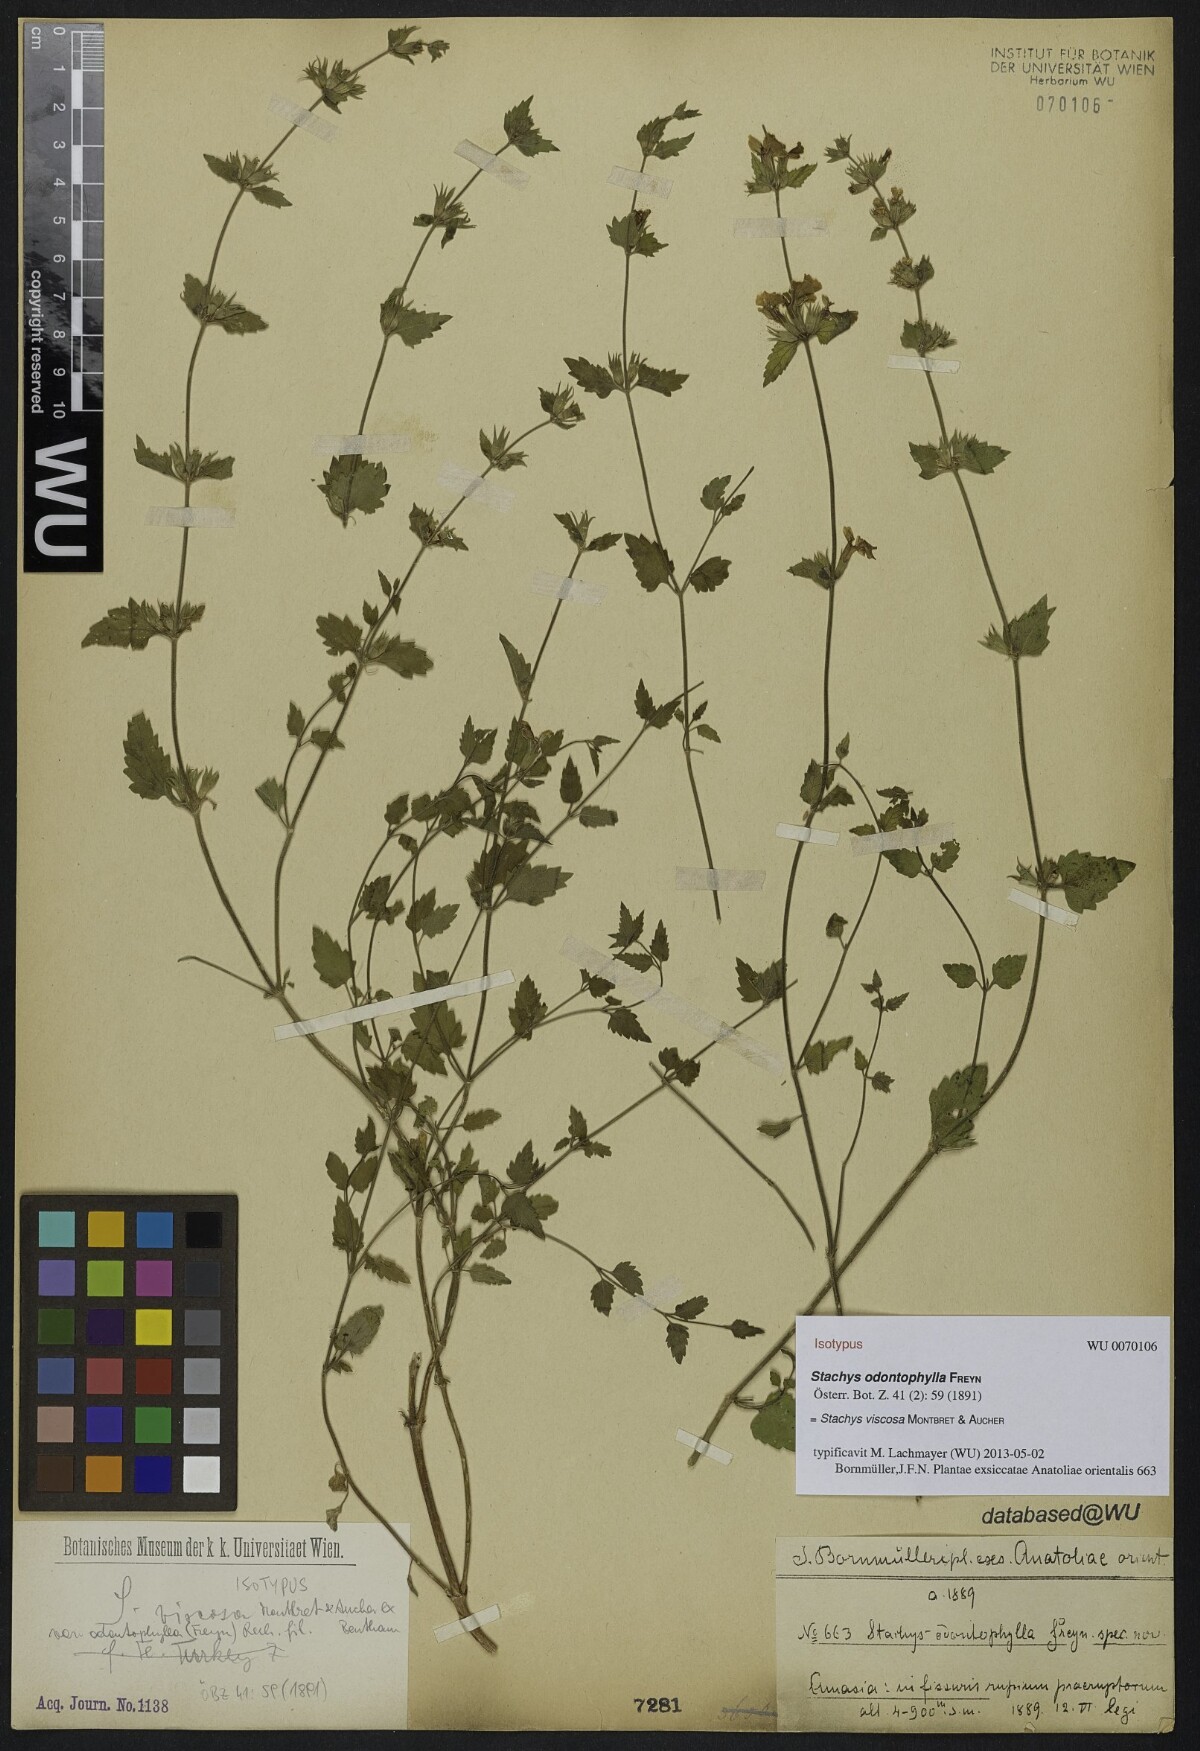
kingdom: Plantae
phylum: Tracheophyta
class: Magnoliopsida
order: Lamiales
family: Lamiaceae
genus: Stachys
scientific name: Stachys viscosa
